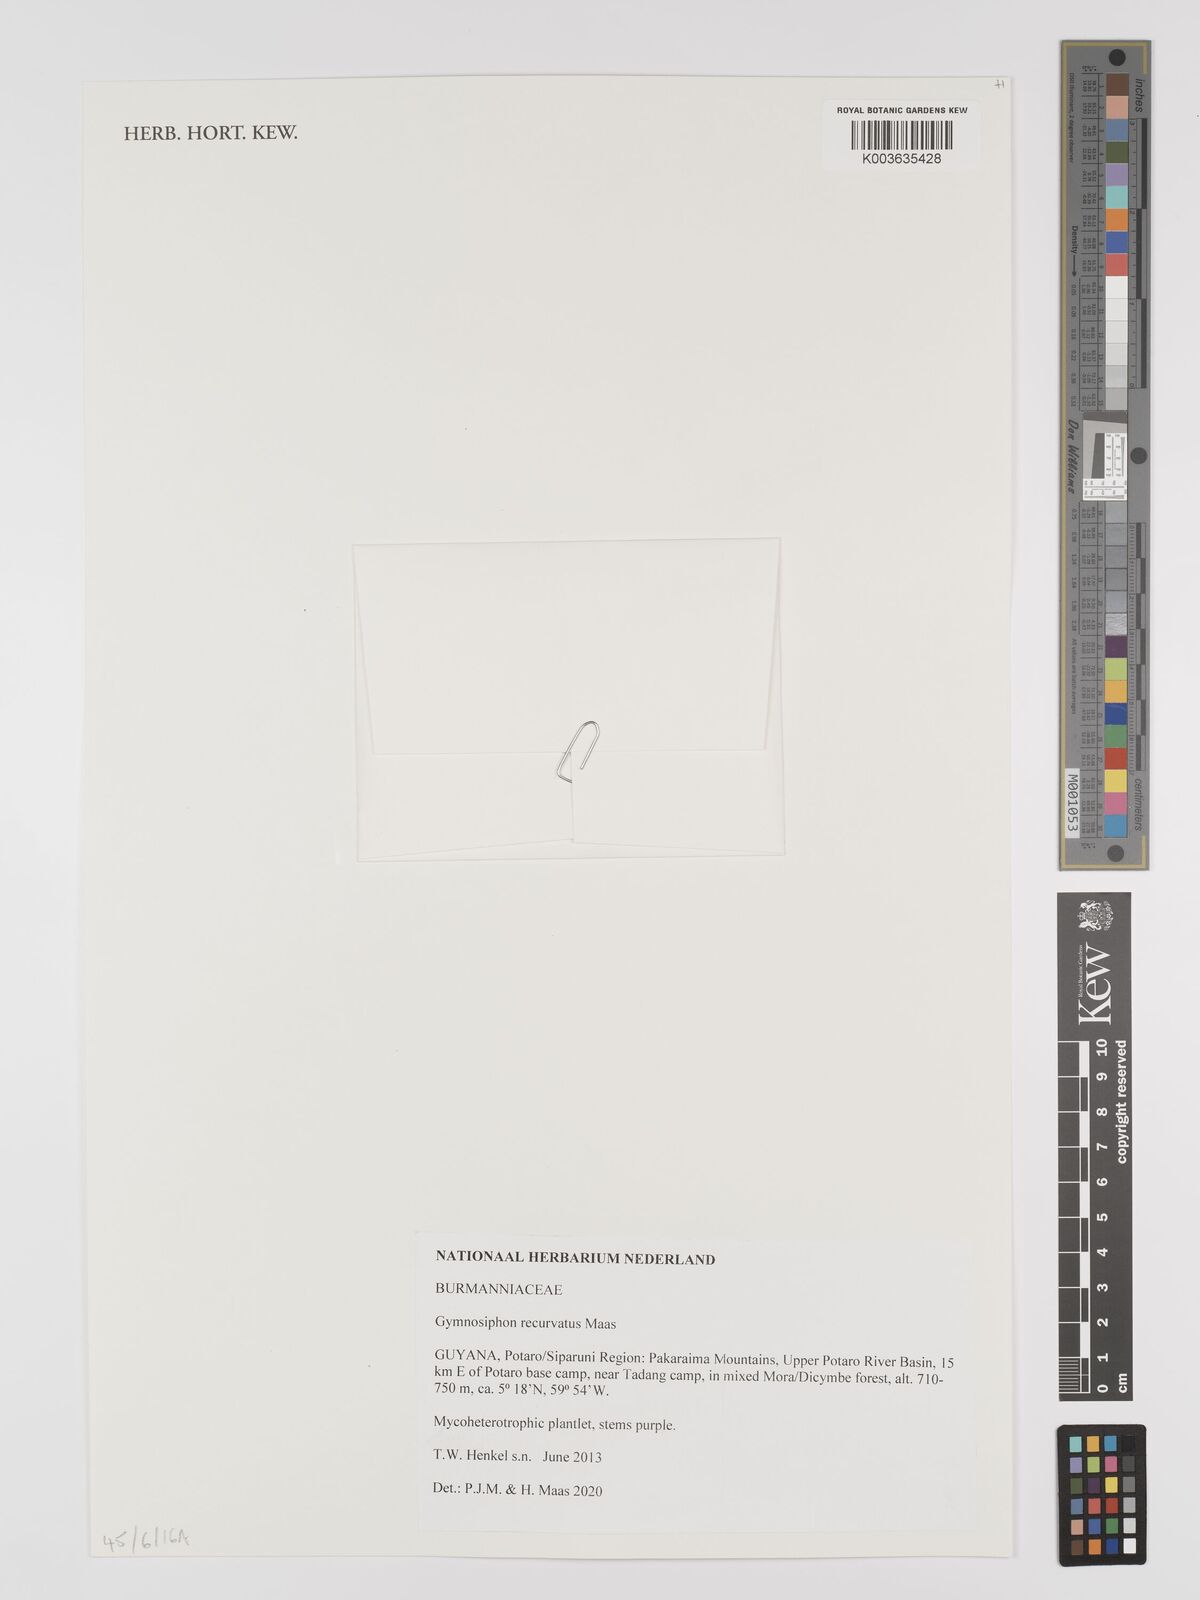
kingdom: Plantae
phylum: Tracheophyta
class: Liliopsida
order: Dioscoreales
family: Burmanniaceae
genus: Gymnosiphon
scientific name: Gymnosiphon recurvatus
